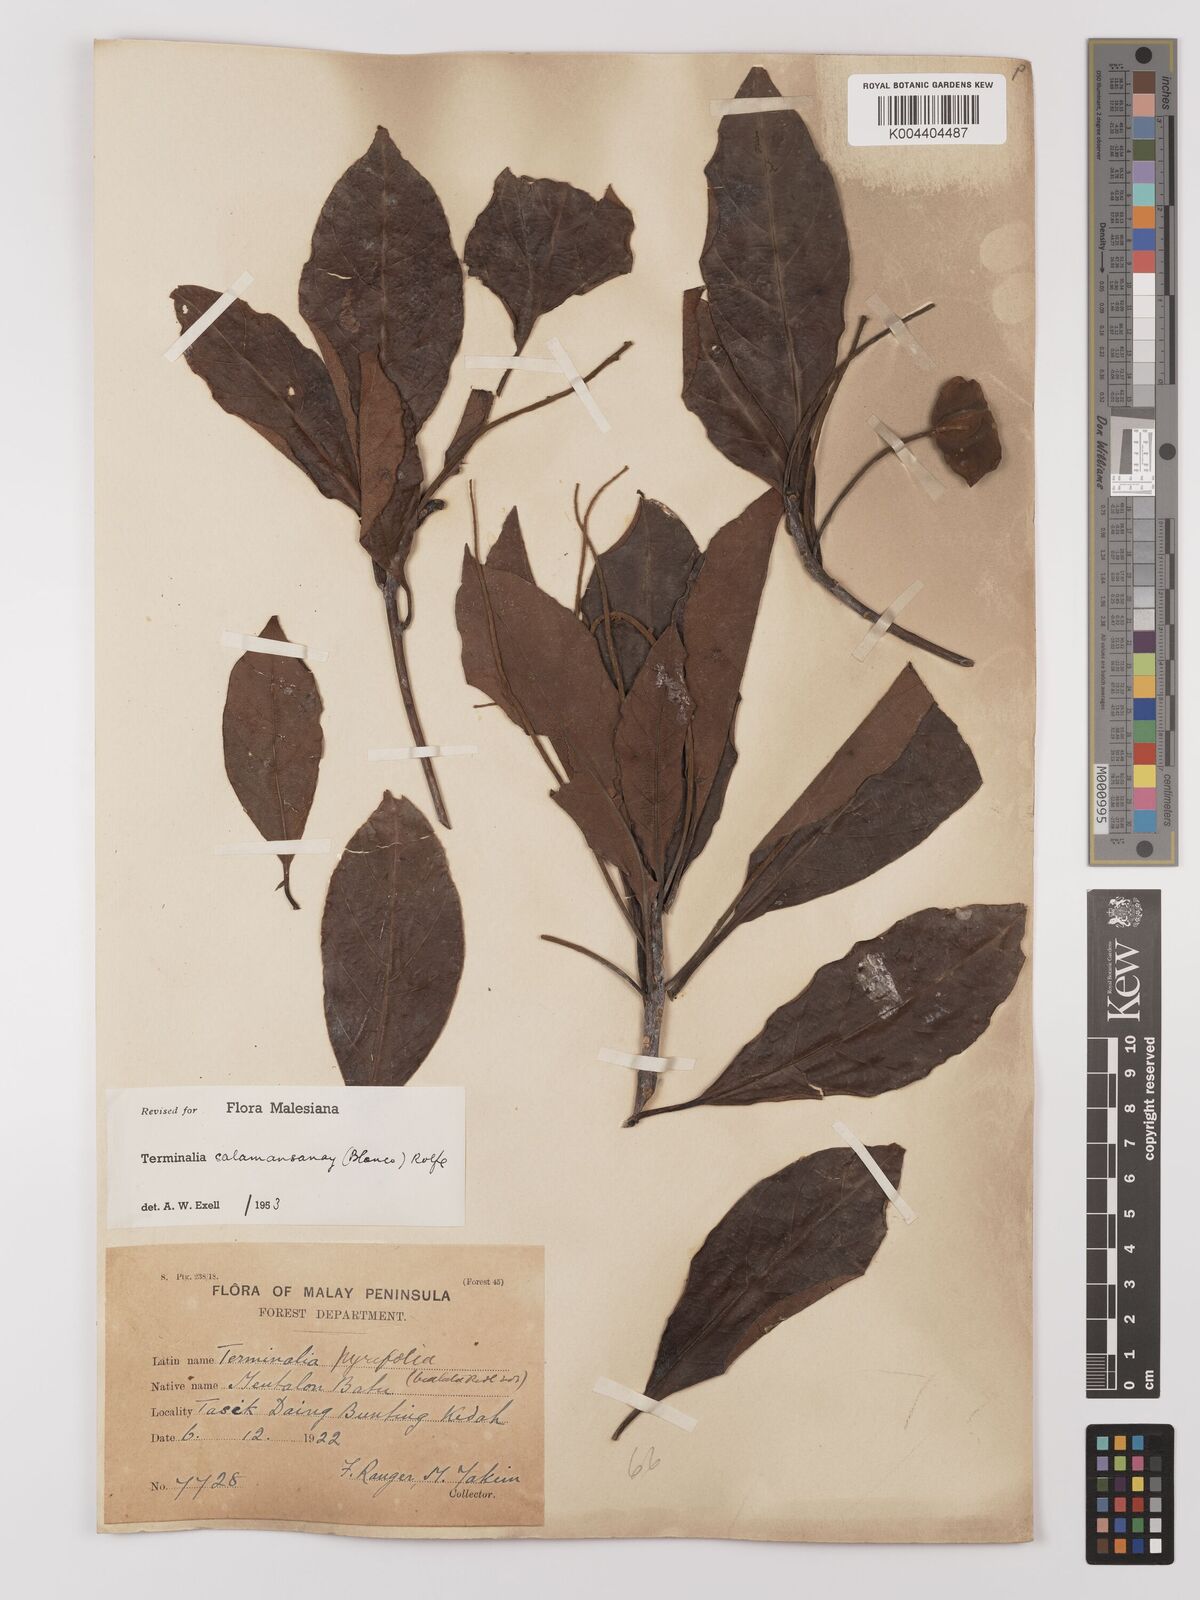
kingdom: Plantae
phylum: Tracheophyta
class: Magnoliopsida
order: Myrtales
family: Combretaceae
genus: Terminalia
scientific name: Terminalia calamansanai
